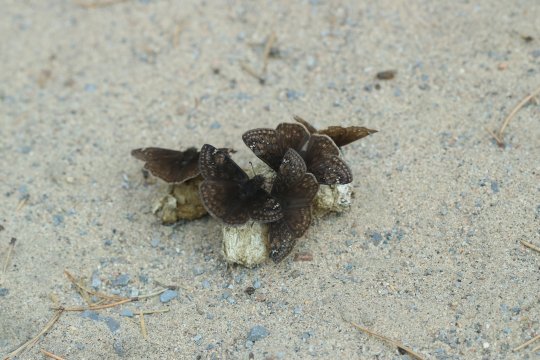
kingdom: Animalia
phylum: Arthropoda
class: Insecta
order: Lepidoptera
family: Hesperiidae
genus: Gesta
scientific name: Gesta
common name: Juvenal's Duskywing
